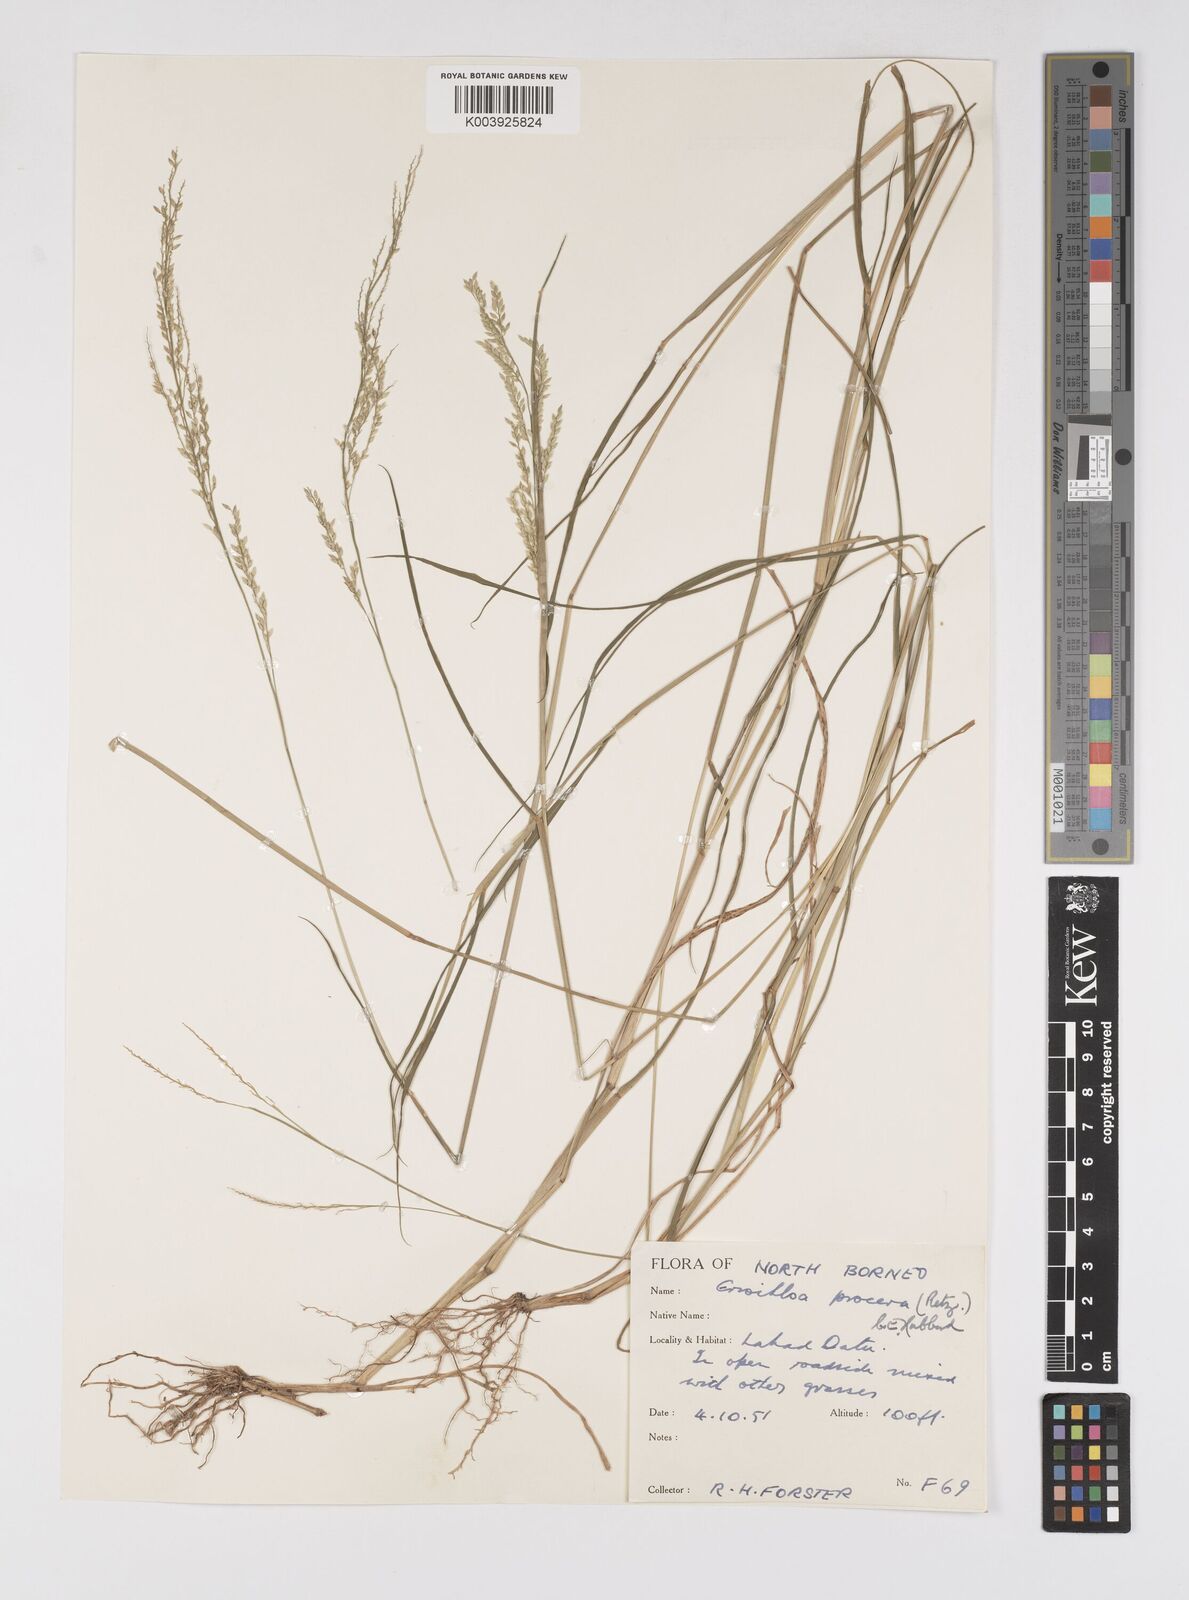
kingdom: Plantae
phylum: Tracheophyta
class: Liliopsida
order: Poales
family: Poaceae
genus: Eriochloa
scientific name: Eriochloa procera
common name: Spring grass
